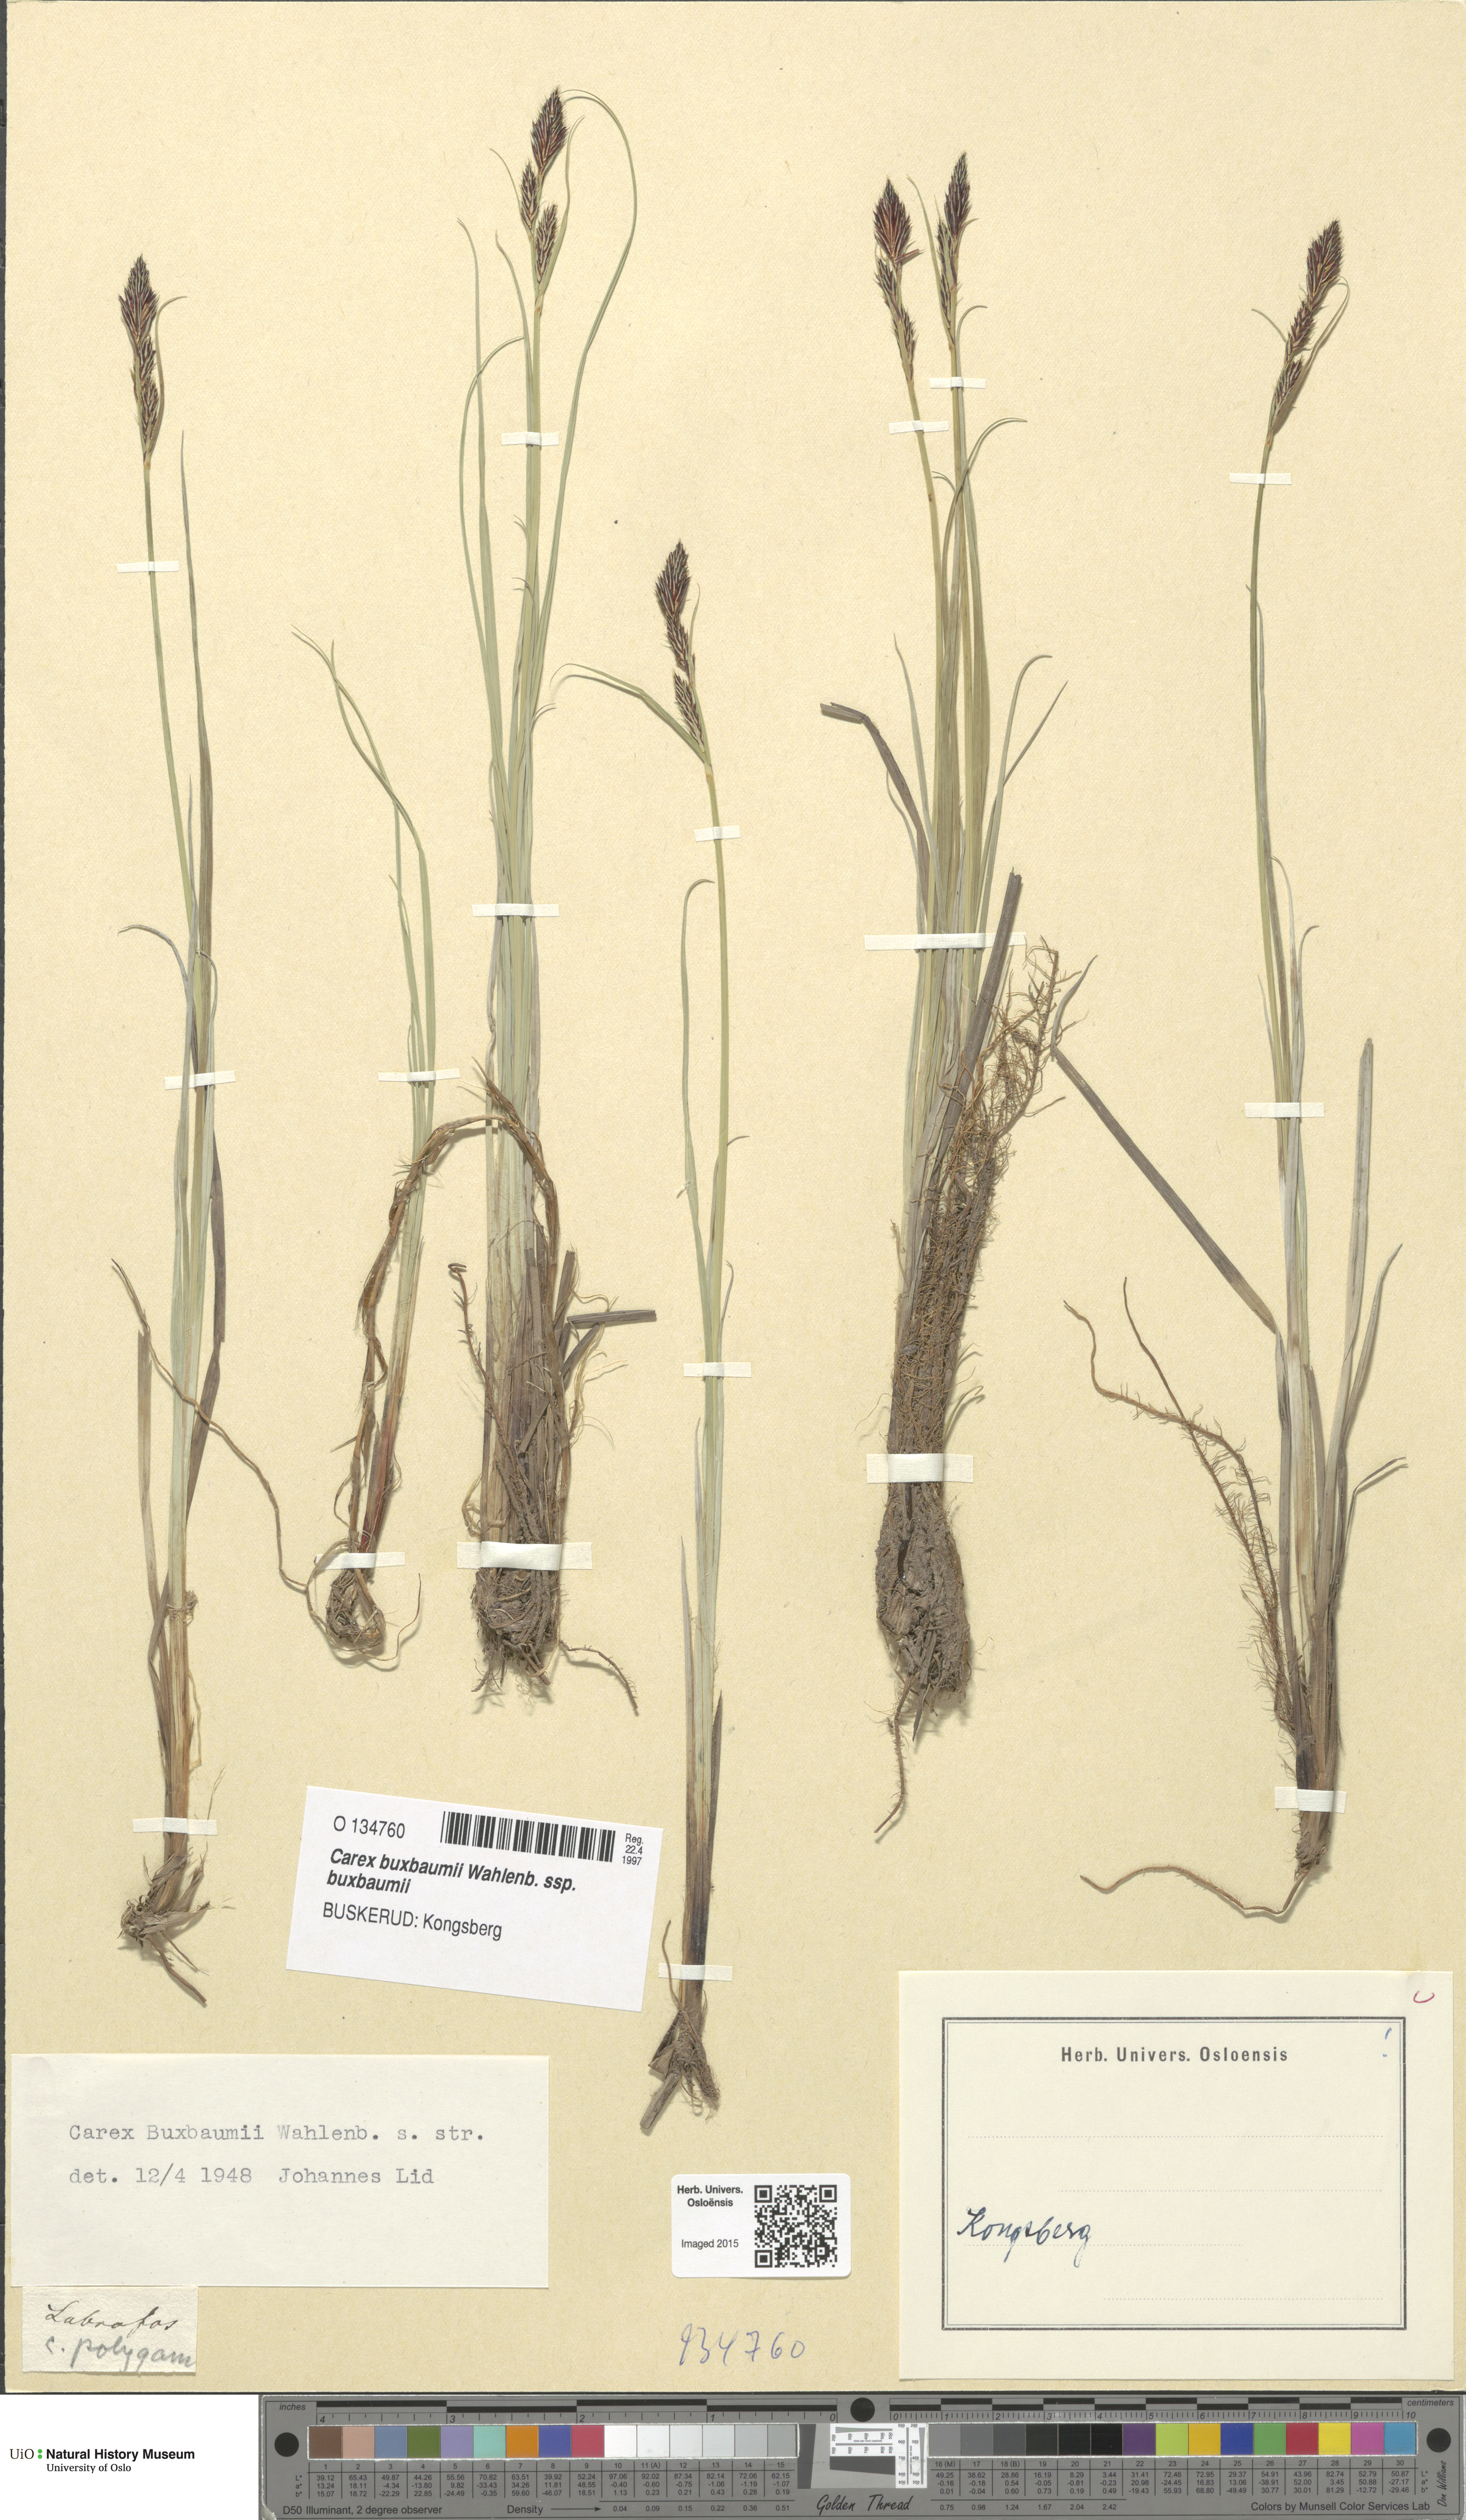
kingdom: Plantae
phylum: Tracheophyta
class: Liliopsida
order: Poales
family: Cyperaceae
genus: Carex
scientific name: Carex buxbaumii
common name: Club sedge
